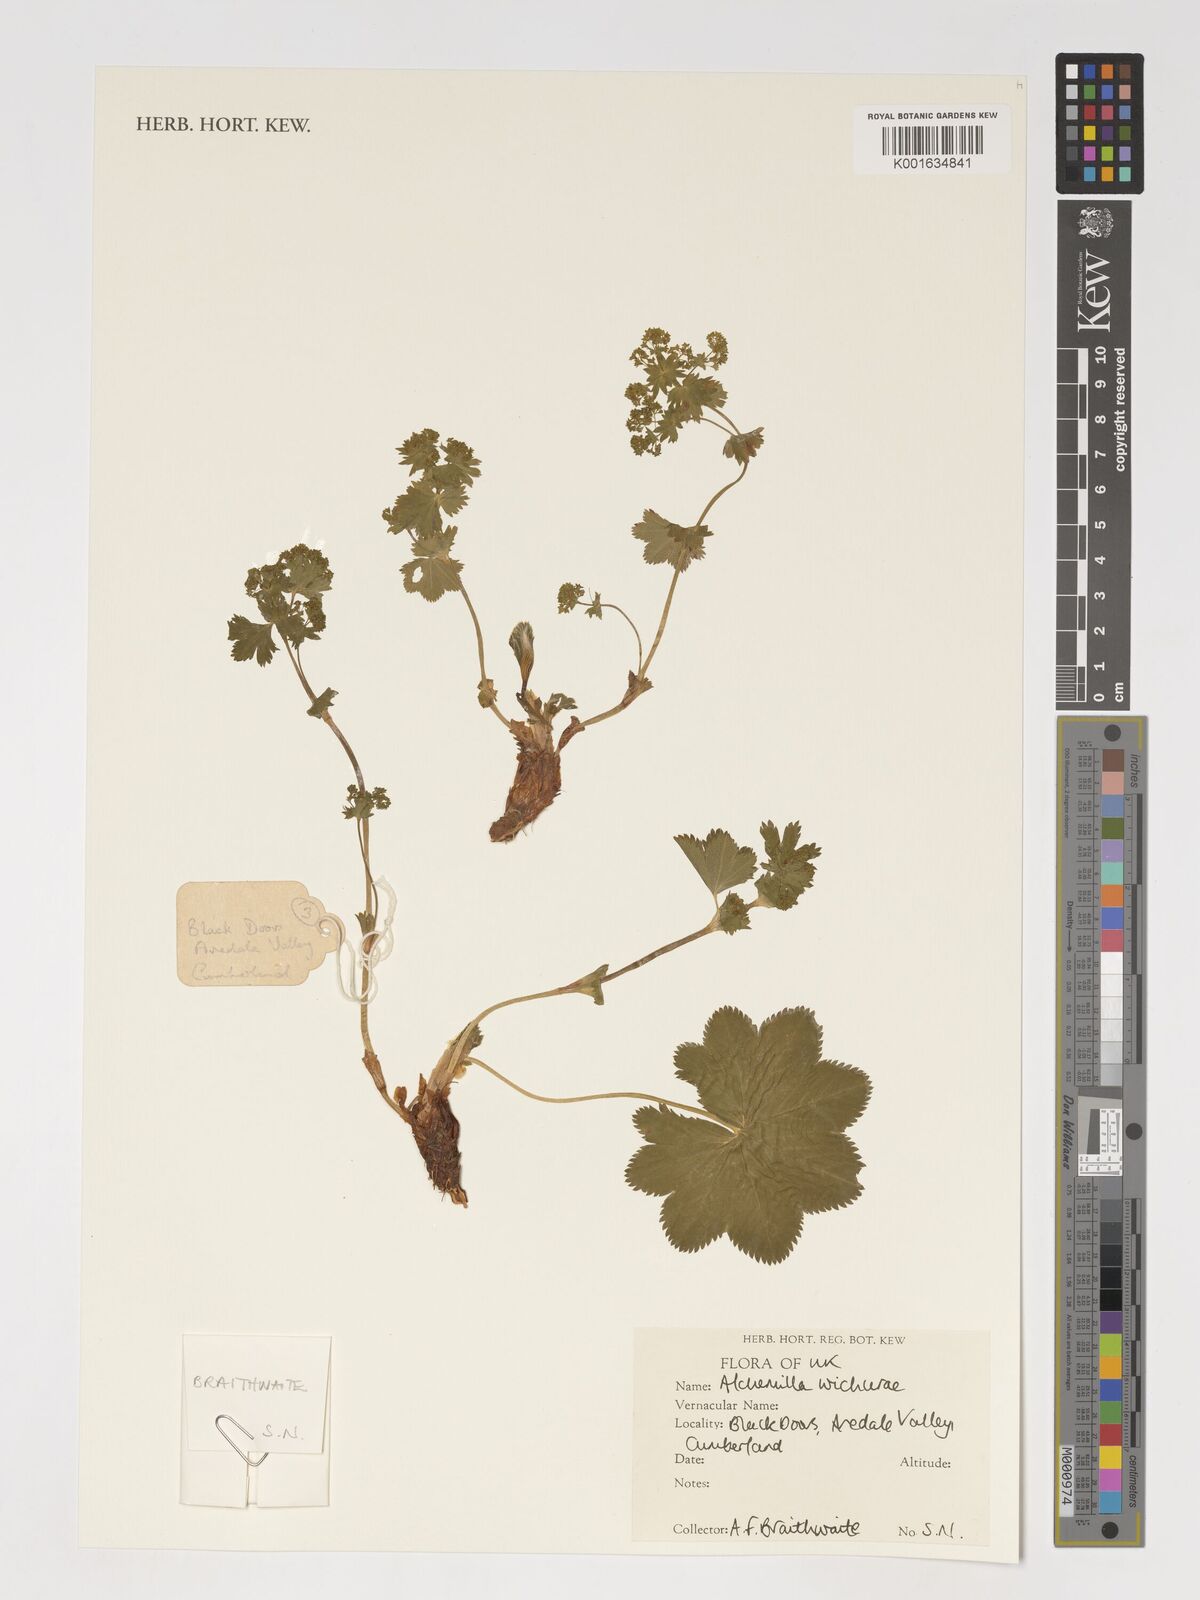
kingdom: Plantae
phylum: Tracheophyta
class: Magnoliopsida
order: Rosales
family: Rosaceae
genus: Alchemilla
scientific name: Alchemilla wichurae
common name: Rock lady's mantle
